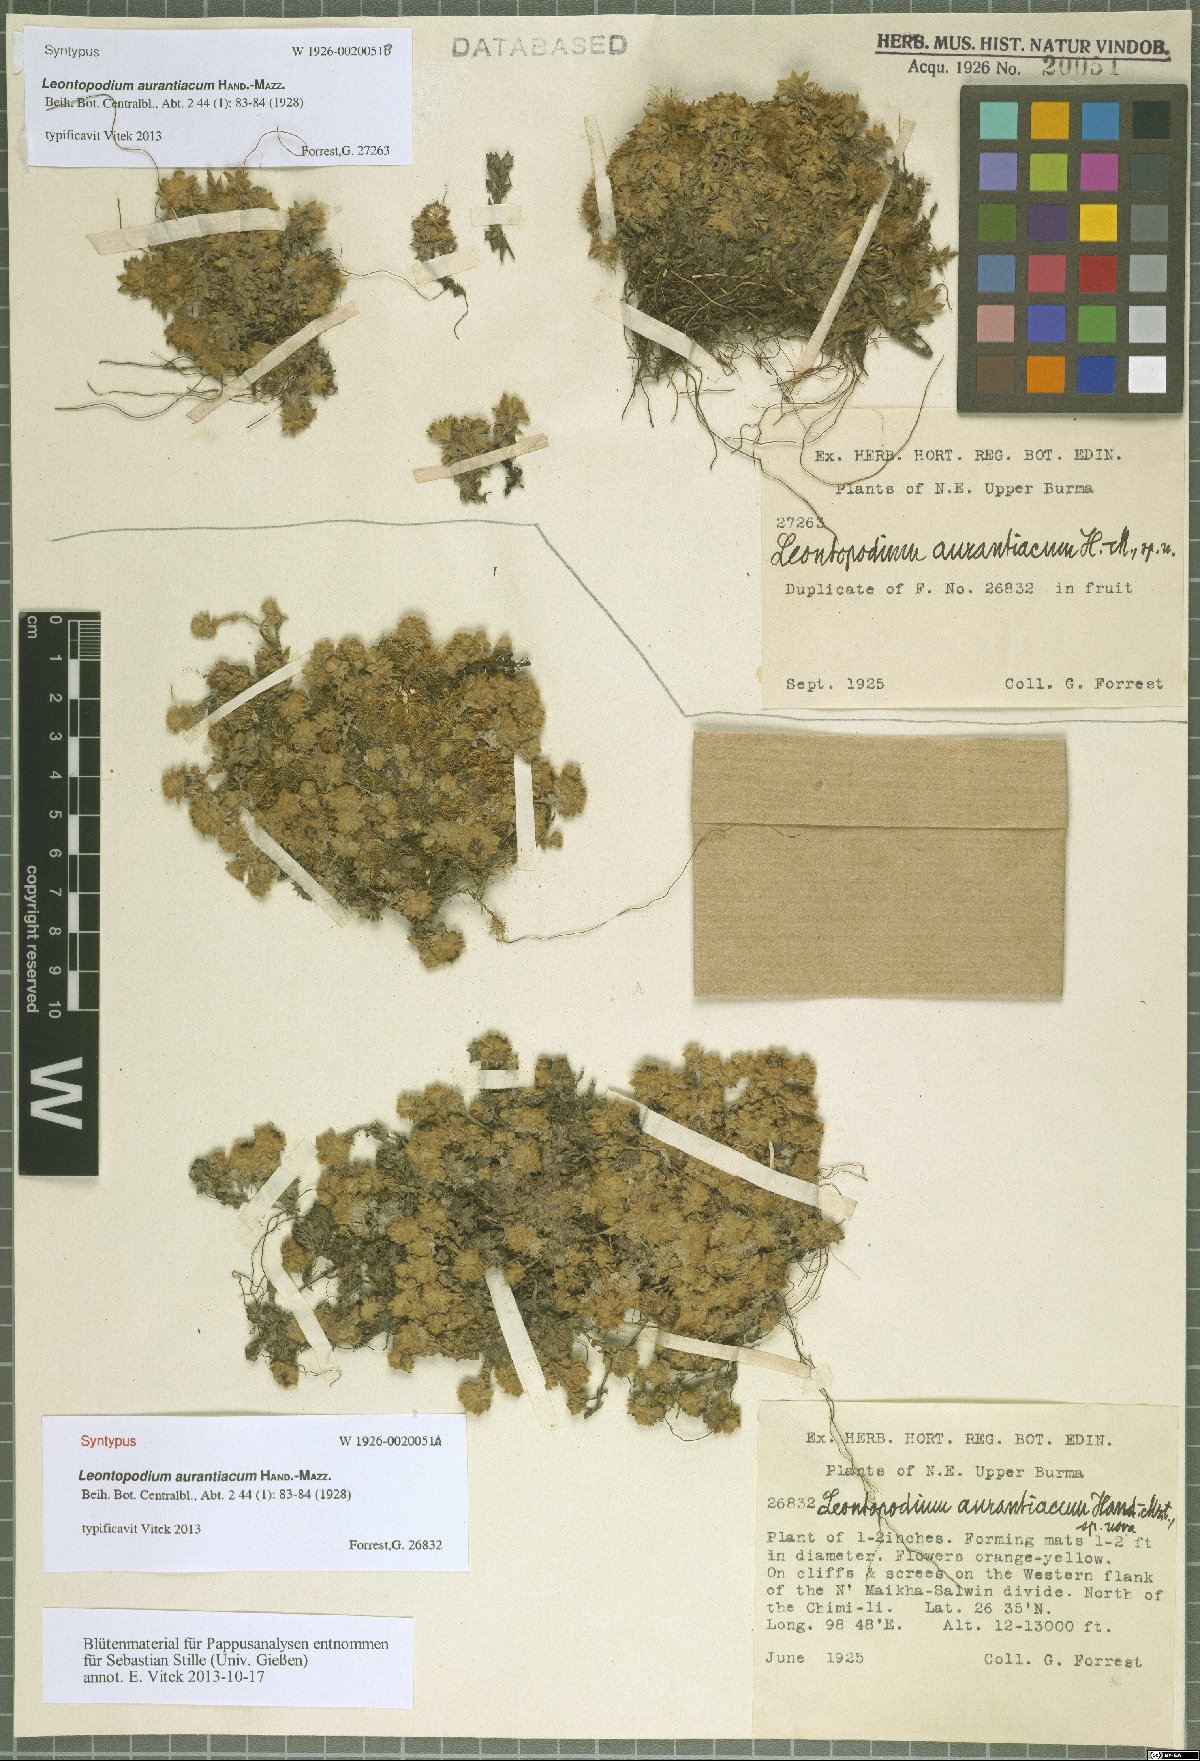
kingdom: Plantae
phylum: Tracheophyta
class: Magnoliopsida
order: Asterales
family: Asteraceae
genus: Leontopodium
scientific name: Leontopodium aurantiacum
